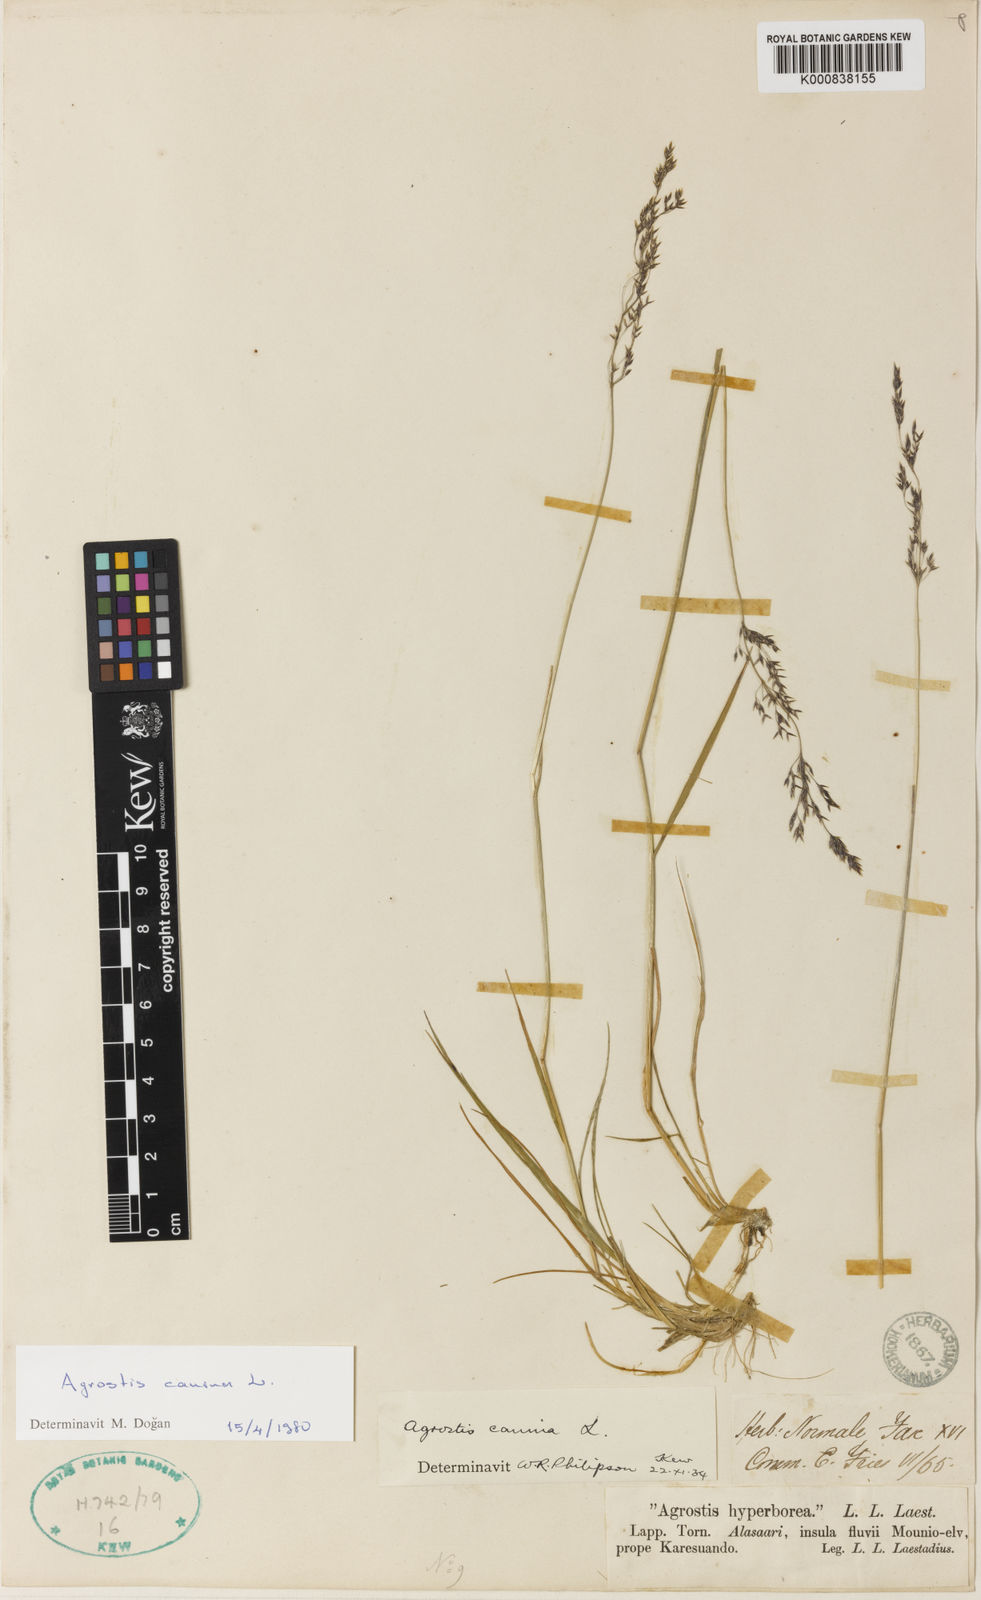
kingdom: Plantae
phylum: Tracheophyta
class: Liliopsida
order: Poales
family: Poaceae
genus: Agrostis
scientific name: Agrostis canina
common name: Velvet bent
